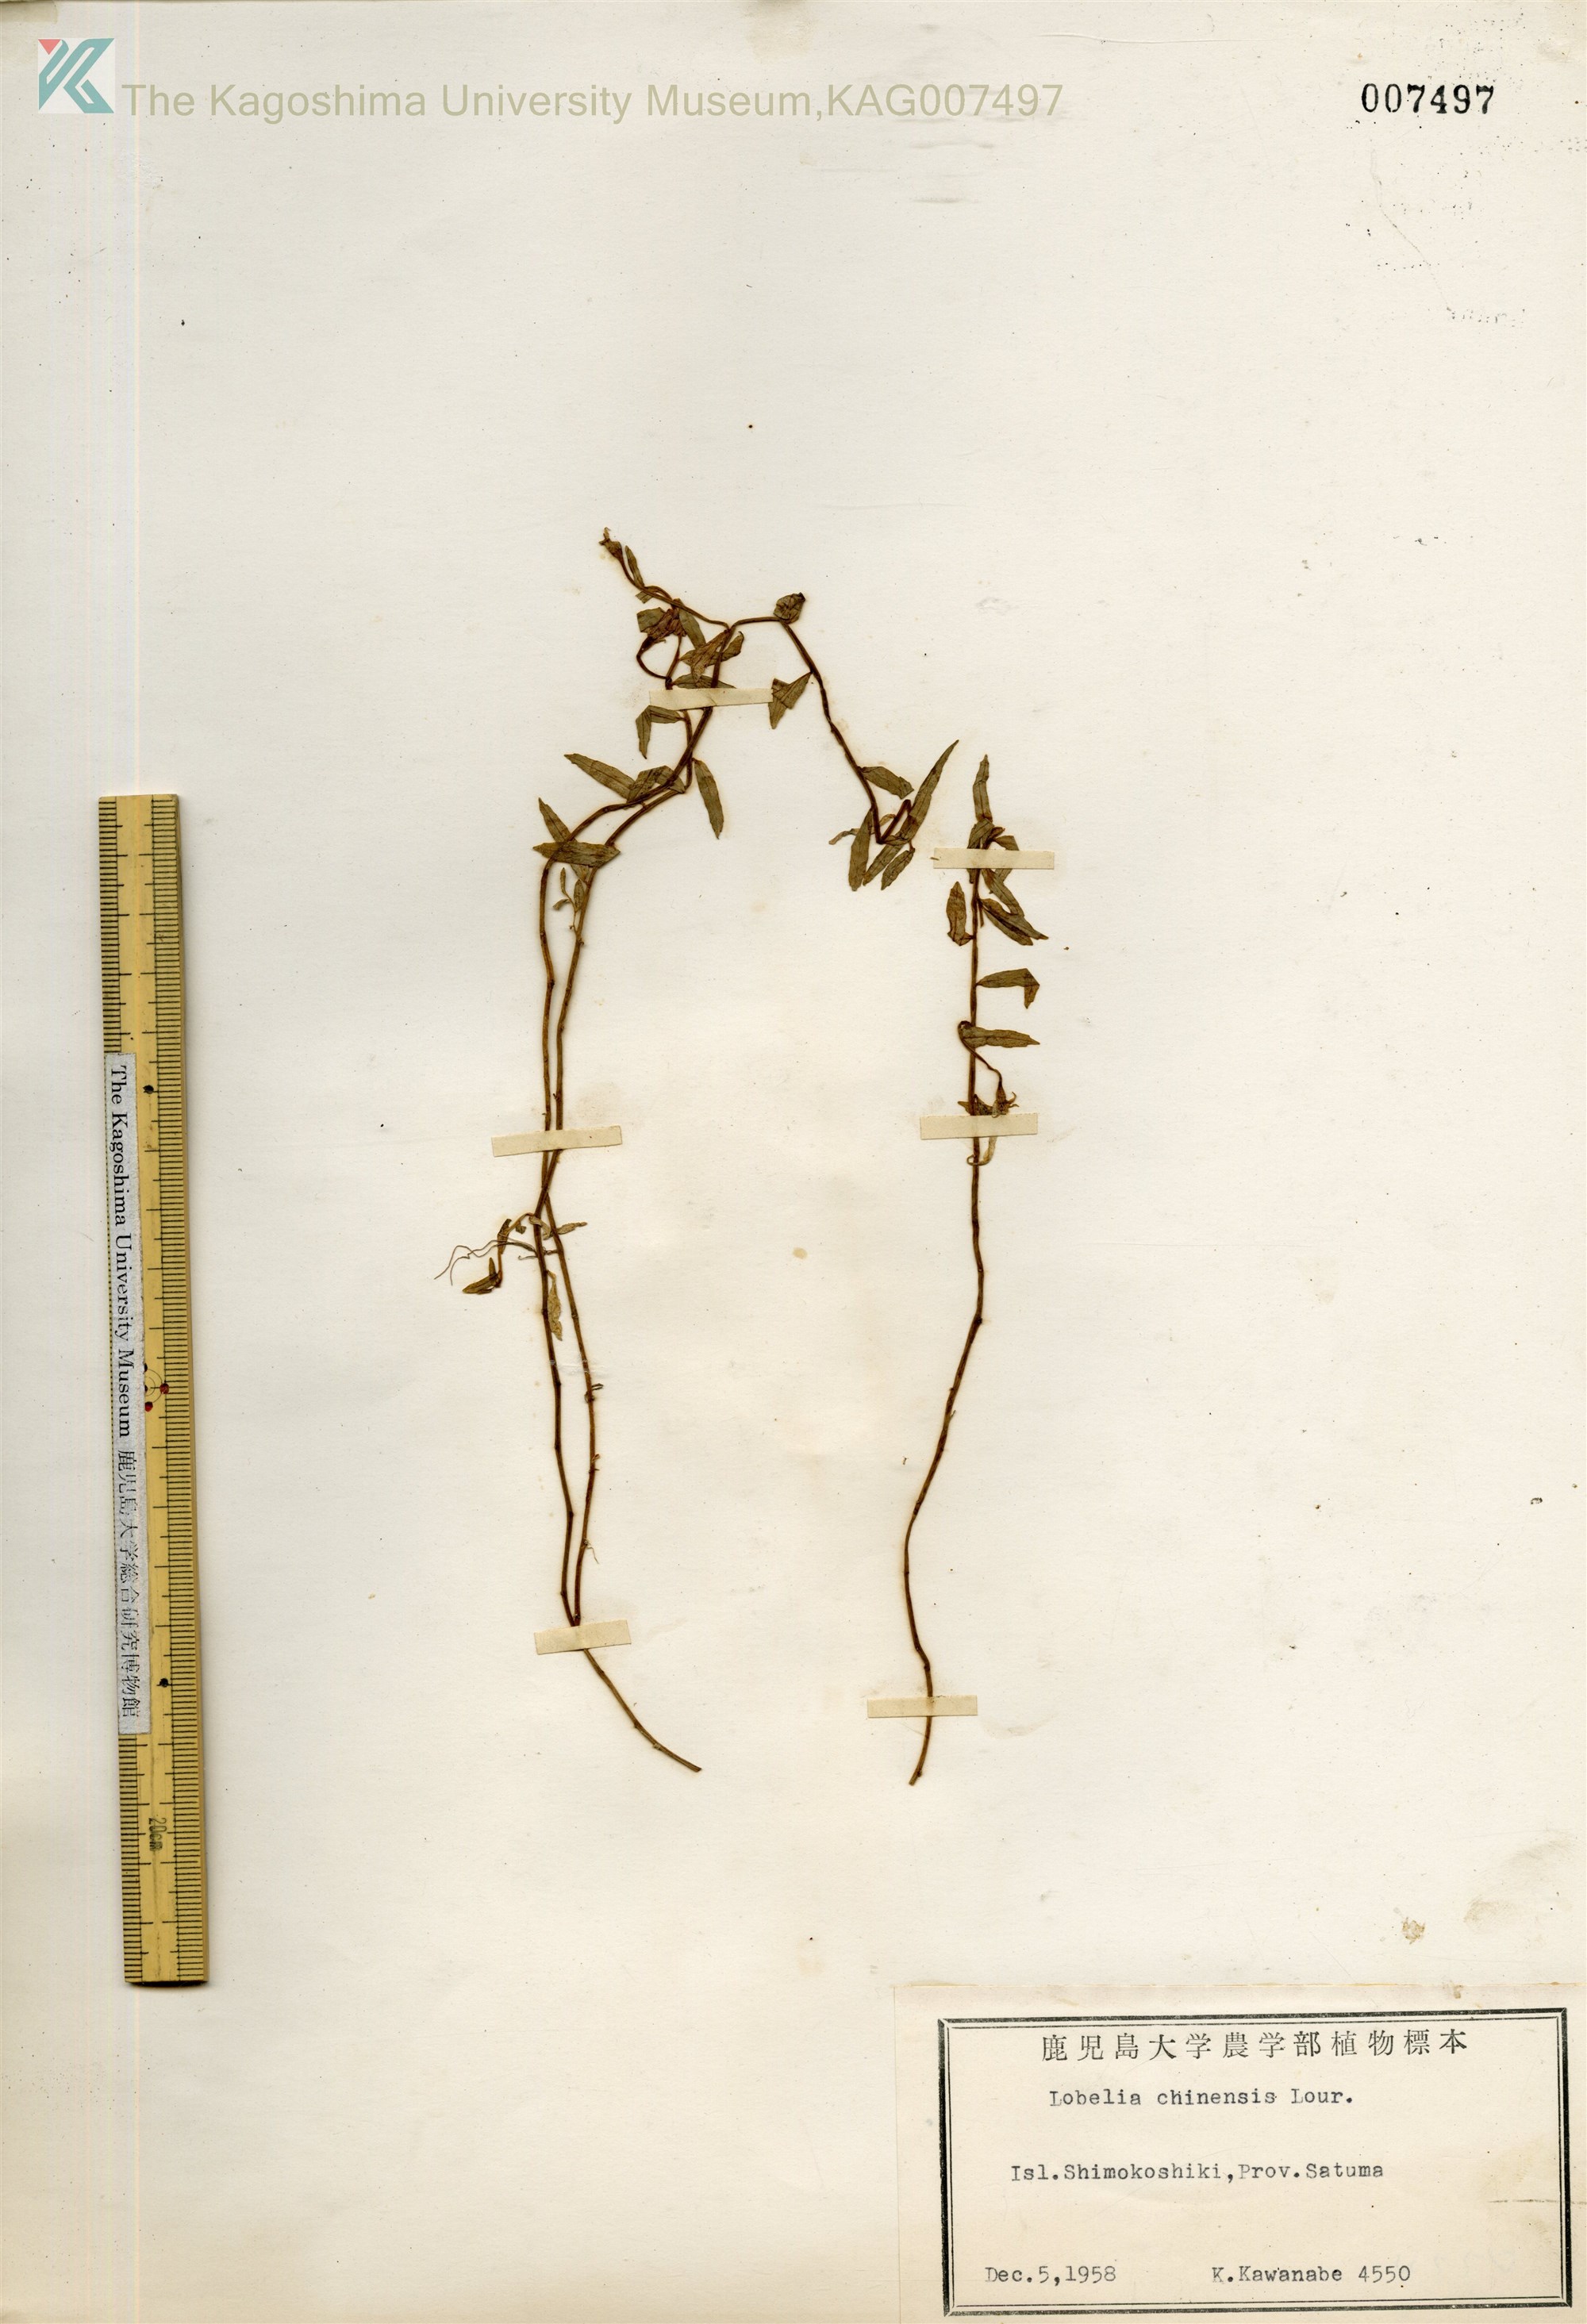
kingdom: Plantae
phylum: Tracheophyta
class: Magnoliopsida
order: Asterales
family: Campanulaceae
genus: Lobelia
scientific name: Lobelia chinensis
